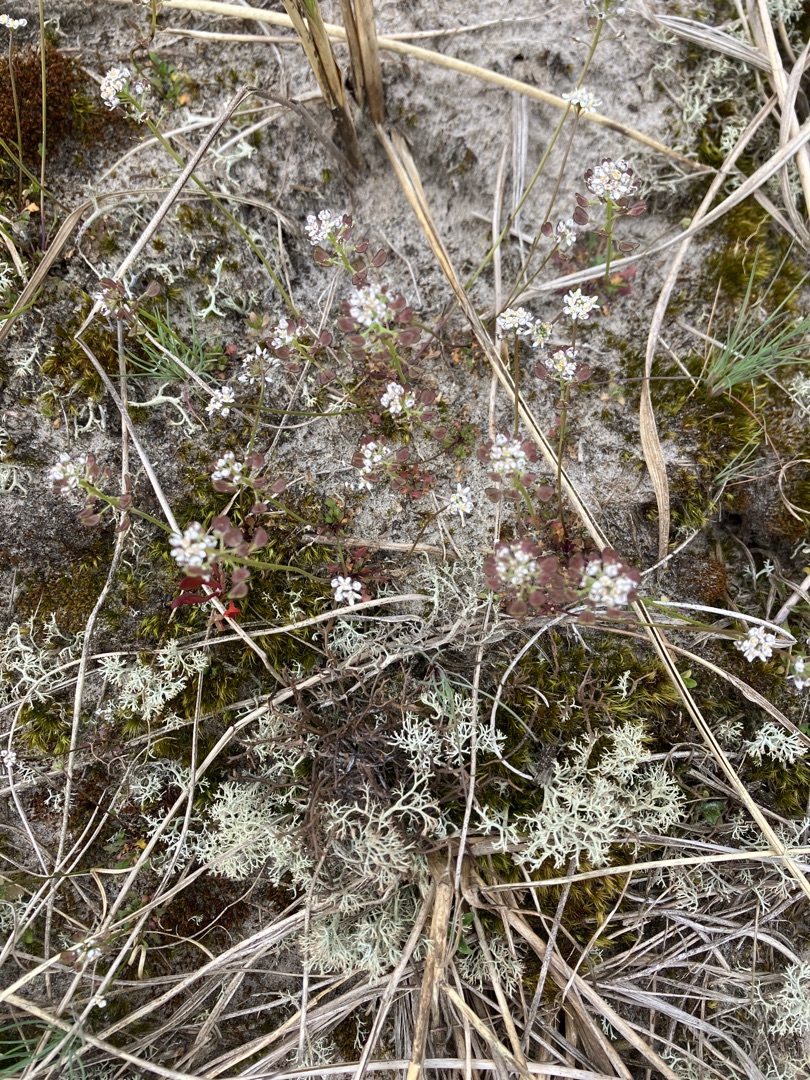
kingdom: Plantae
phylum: Tracheophyta
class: Magnoliopsida
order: Brassicales
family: Brassicaceae
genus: Teesdalia
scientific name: Teesdalia nudicaulis
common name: Flipkrave
